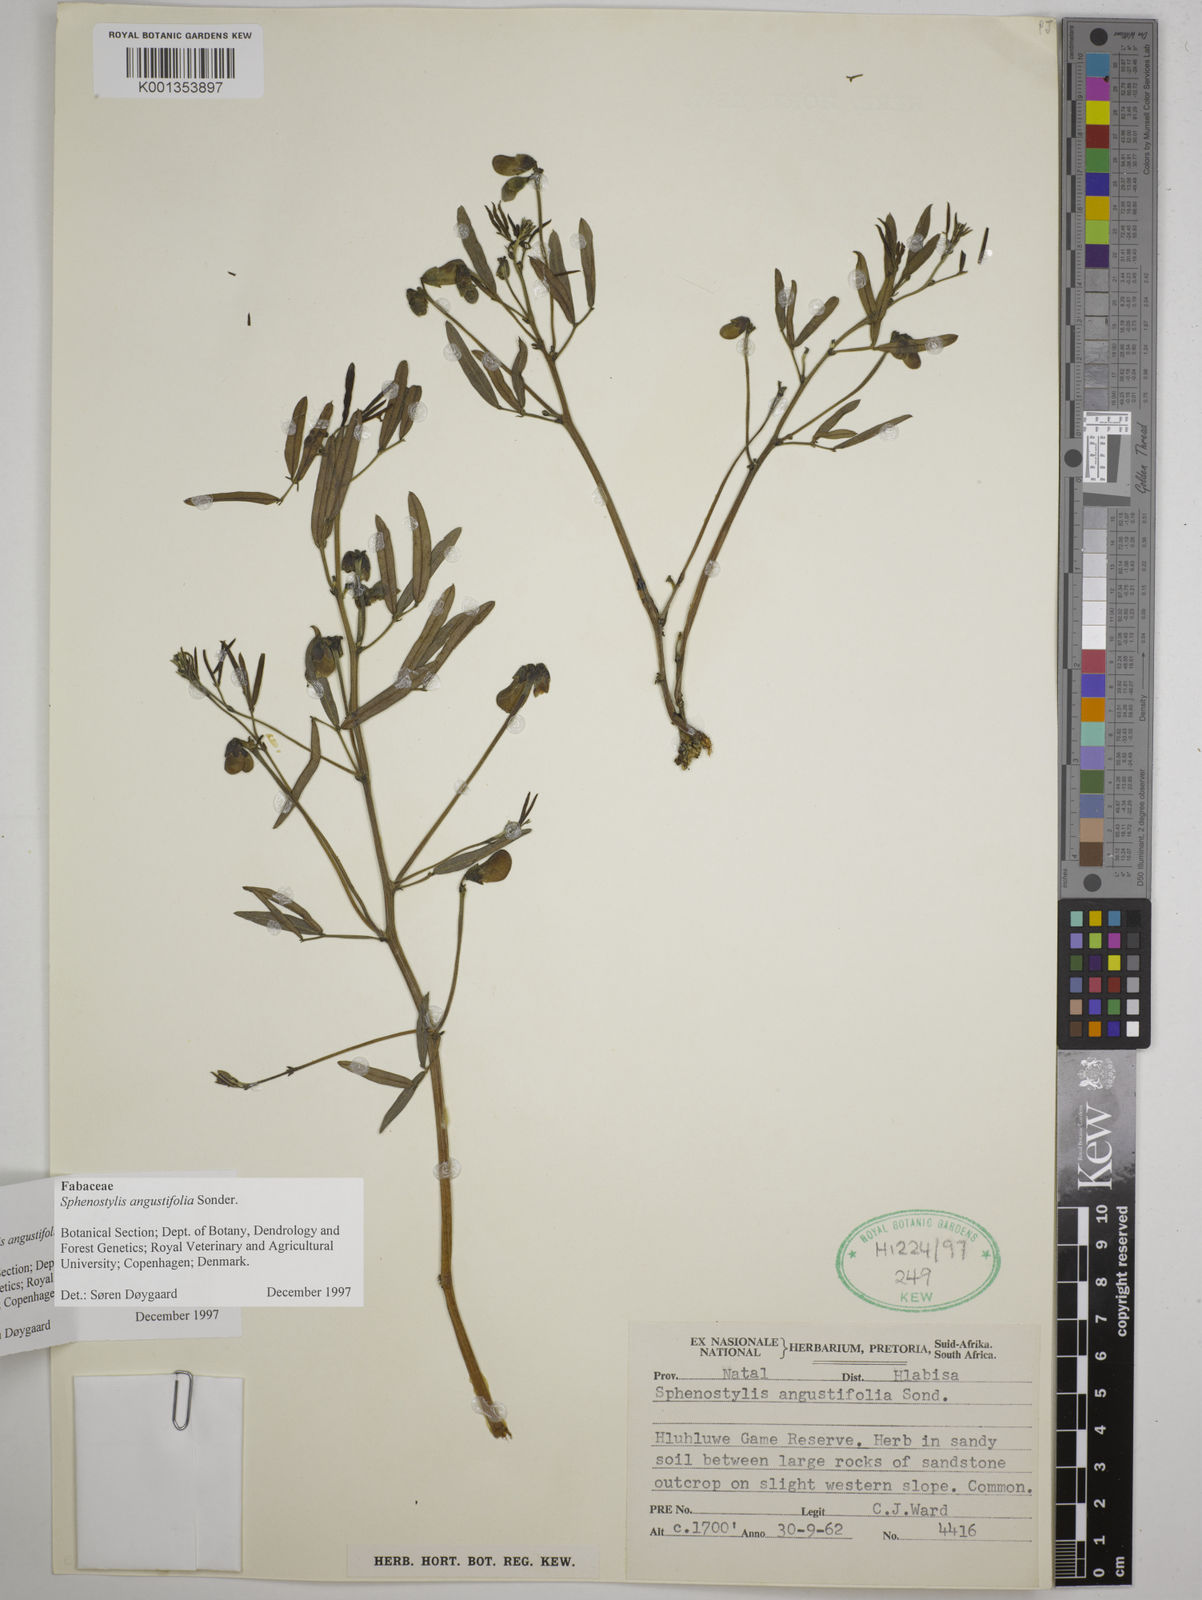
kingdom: Plantae
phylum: Tracheophyta
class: Magnoliopsida
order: Fabales
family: Fabaceae
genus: Sphenostylis
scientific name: Sphenostylis angustifolia
